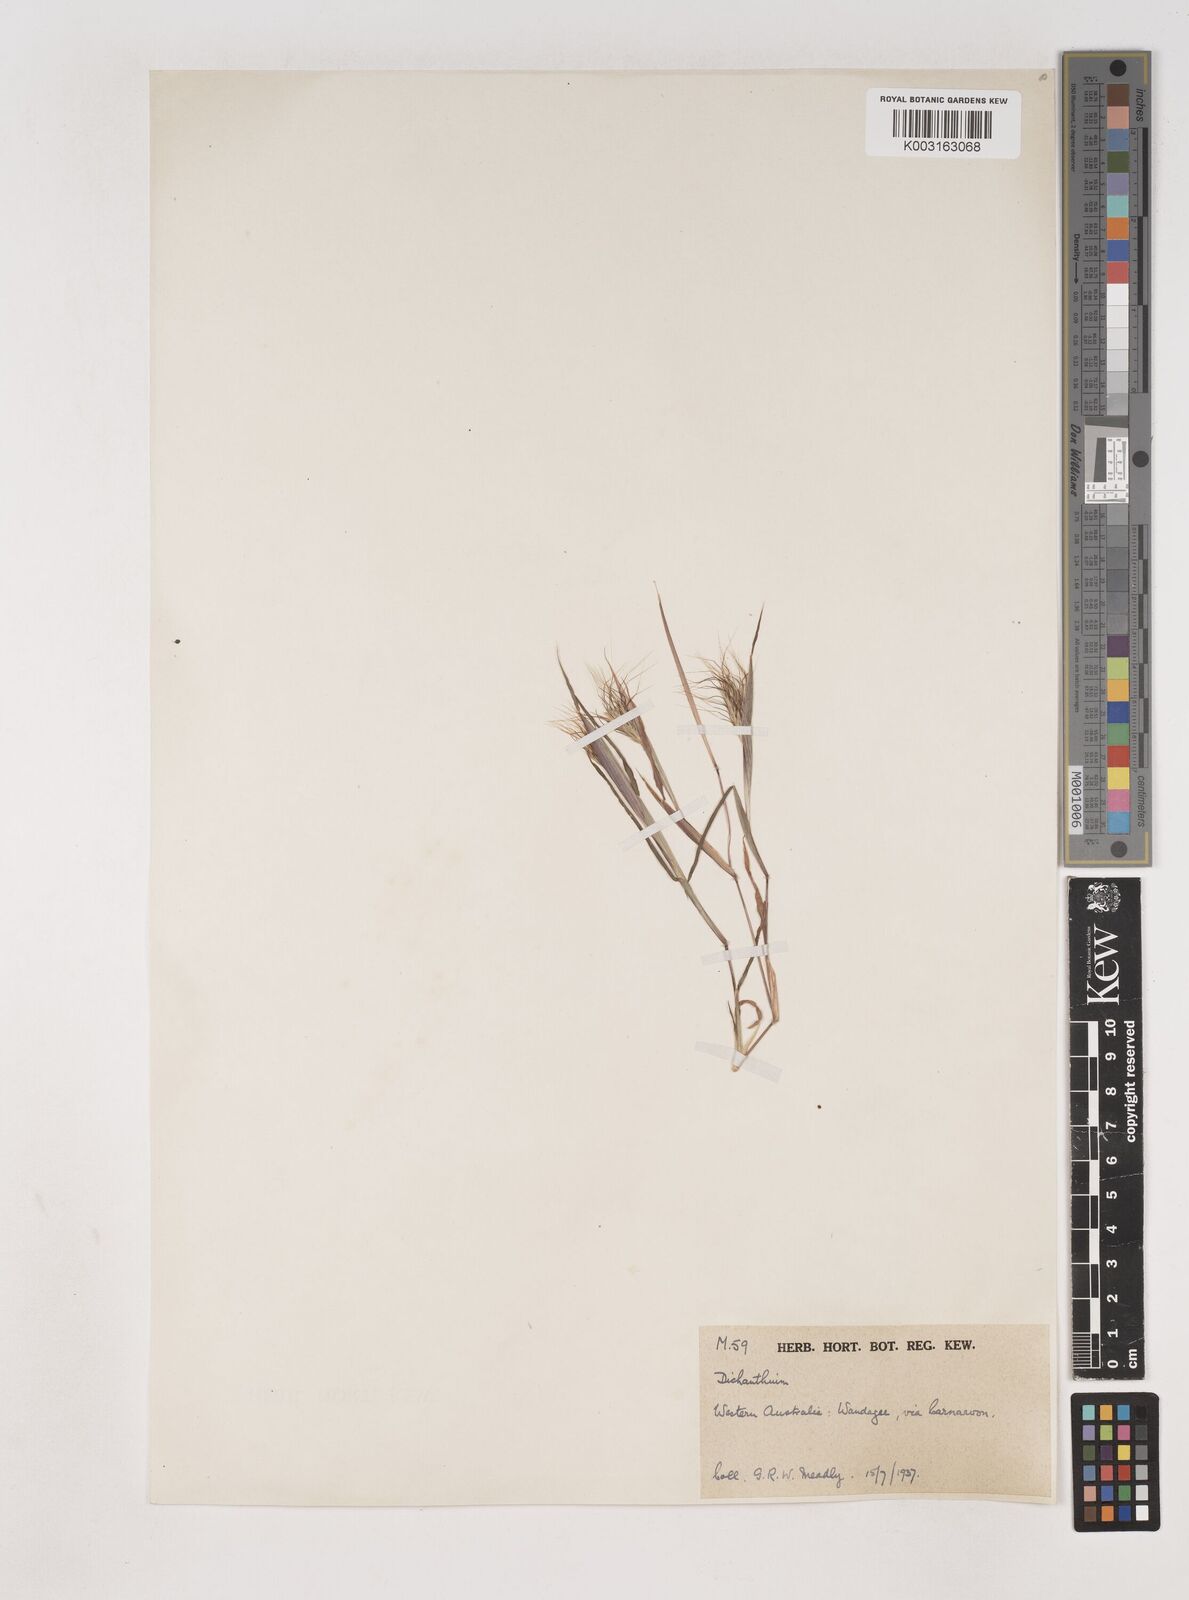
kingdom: Plantae
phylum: Tracheophyta
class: Liliopsida
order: Poales
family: Poaceae
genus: Dichanthium
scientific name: Dichanthium sericeum
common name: Silky bluestem
